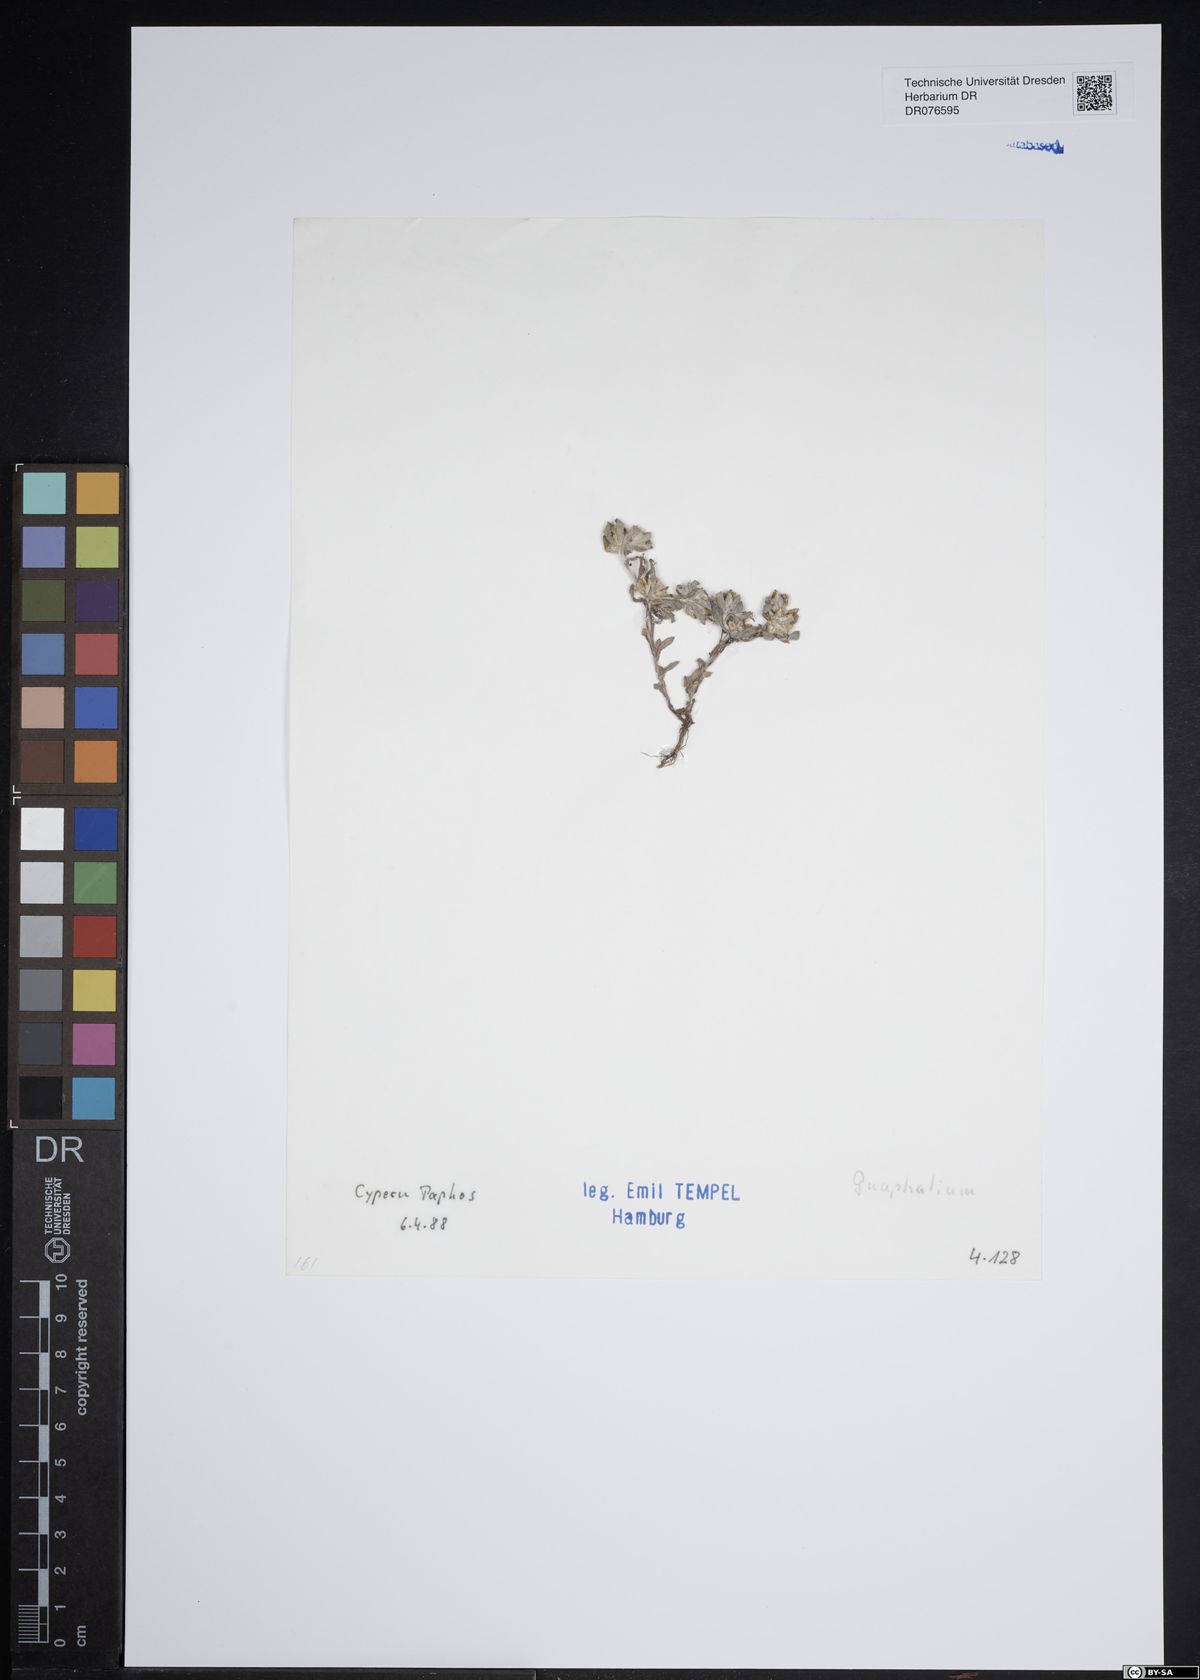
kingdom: Plantae
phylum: Tracheophyta
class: Magnoliopsida
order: Asterales
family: Asteraceae
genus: Gnaphalium
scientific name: Gnaphalium
